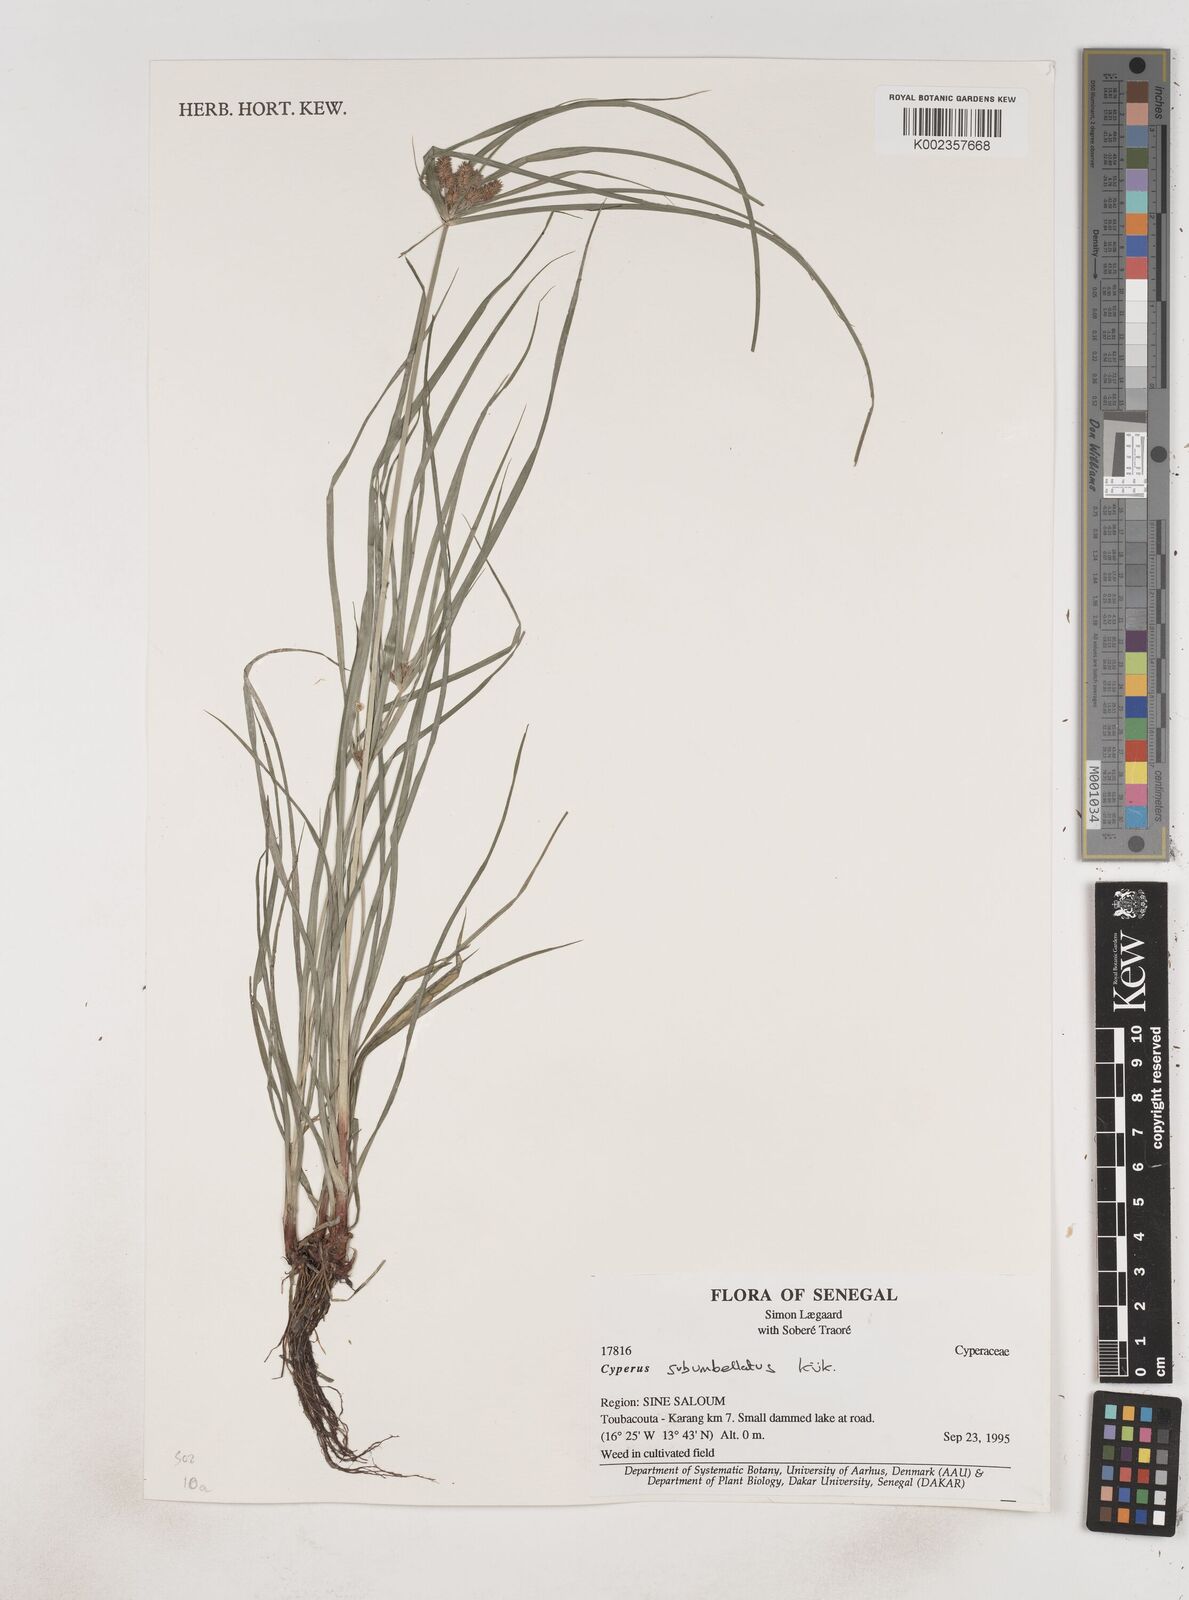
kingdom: Plantae
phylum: Tracheophyta
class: Liliopsida
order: Poales
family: Cyperaceae
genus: Cyperus
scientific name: Cyperus sublimis
